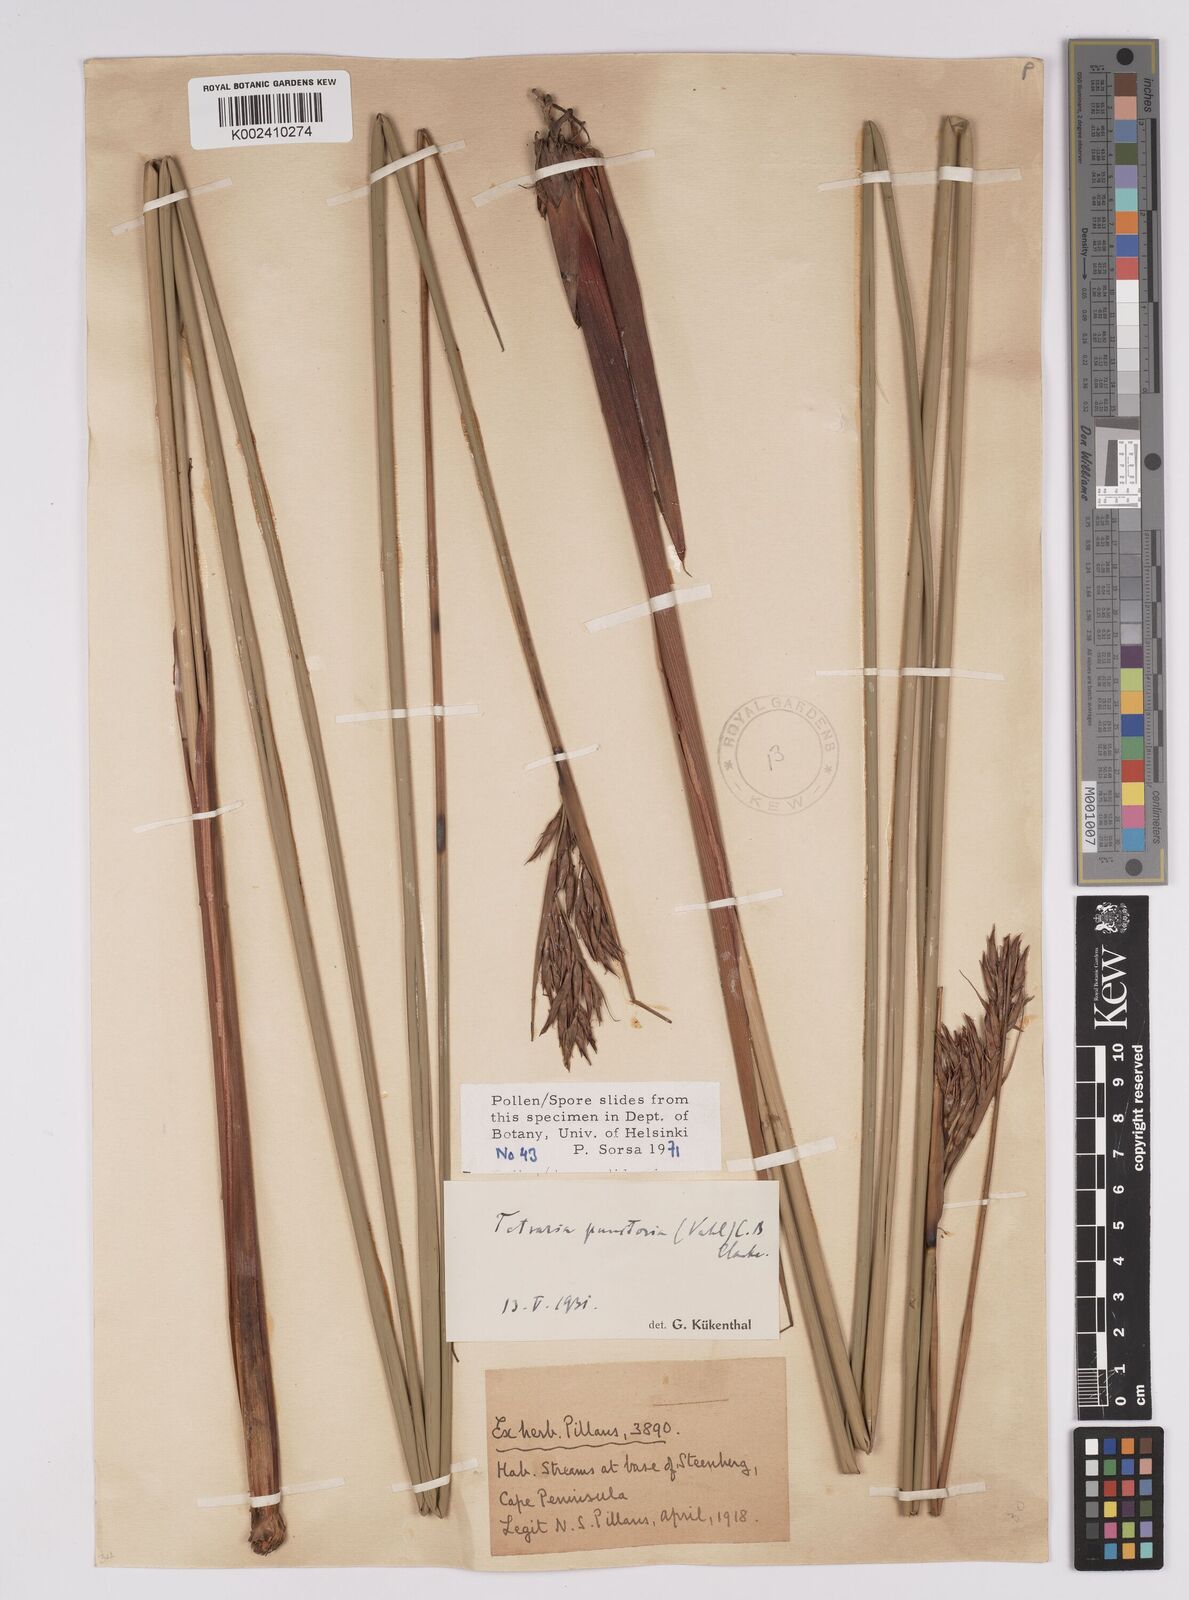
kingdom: Plantae
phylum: Tracheophyta
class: Liliopsida
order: Poales
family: Cyperaceae
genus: Neesenbeckia
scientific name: Neesenbeckia punctoria
